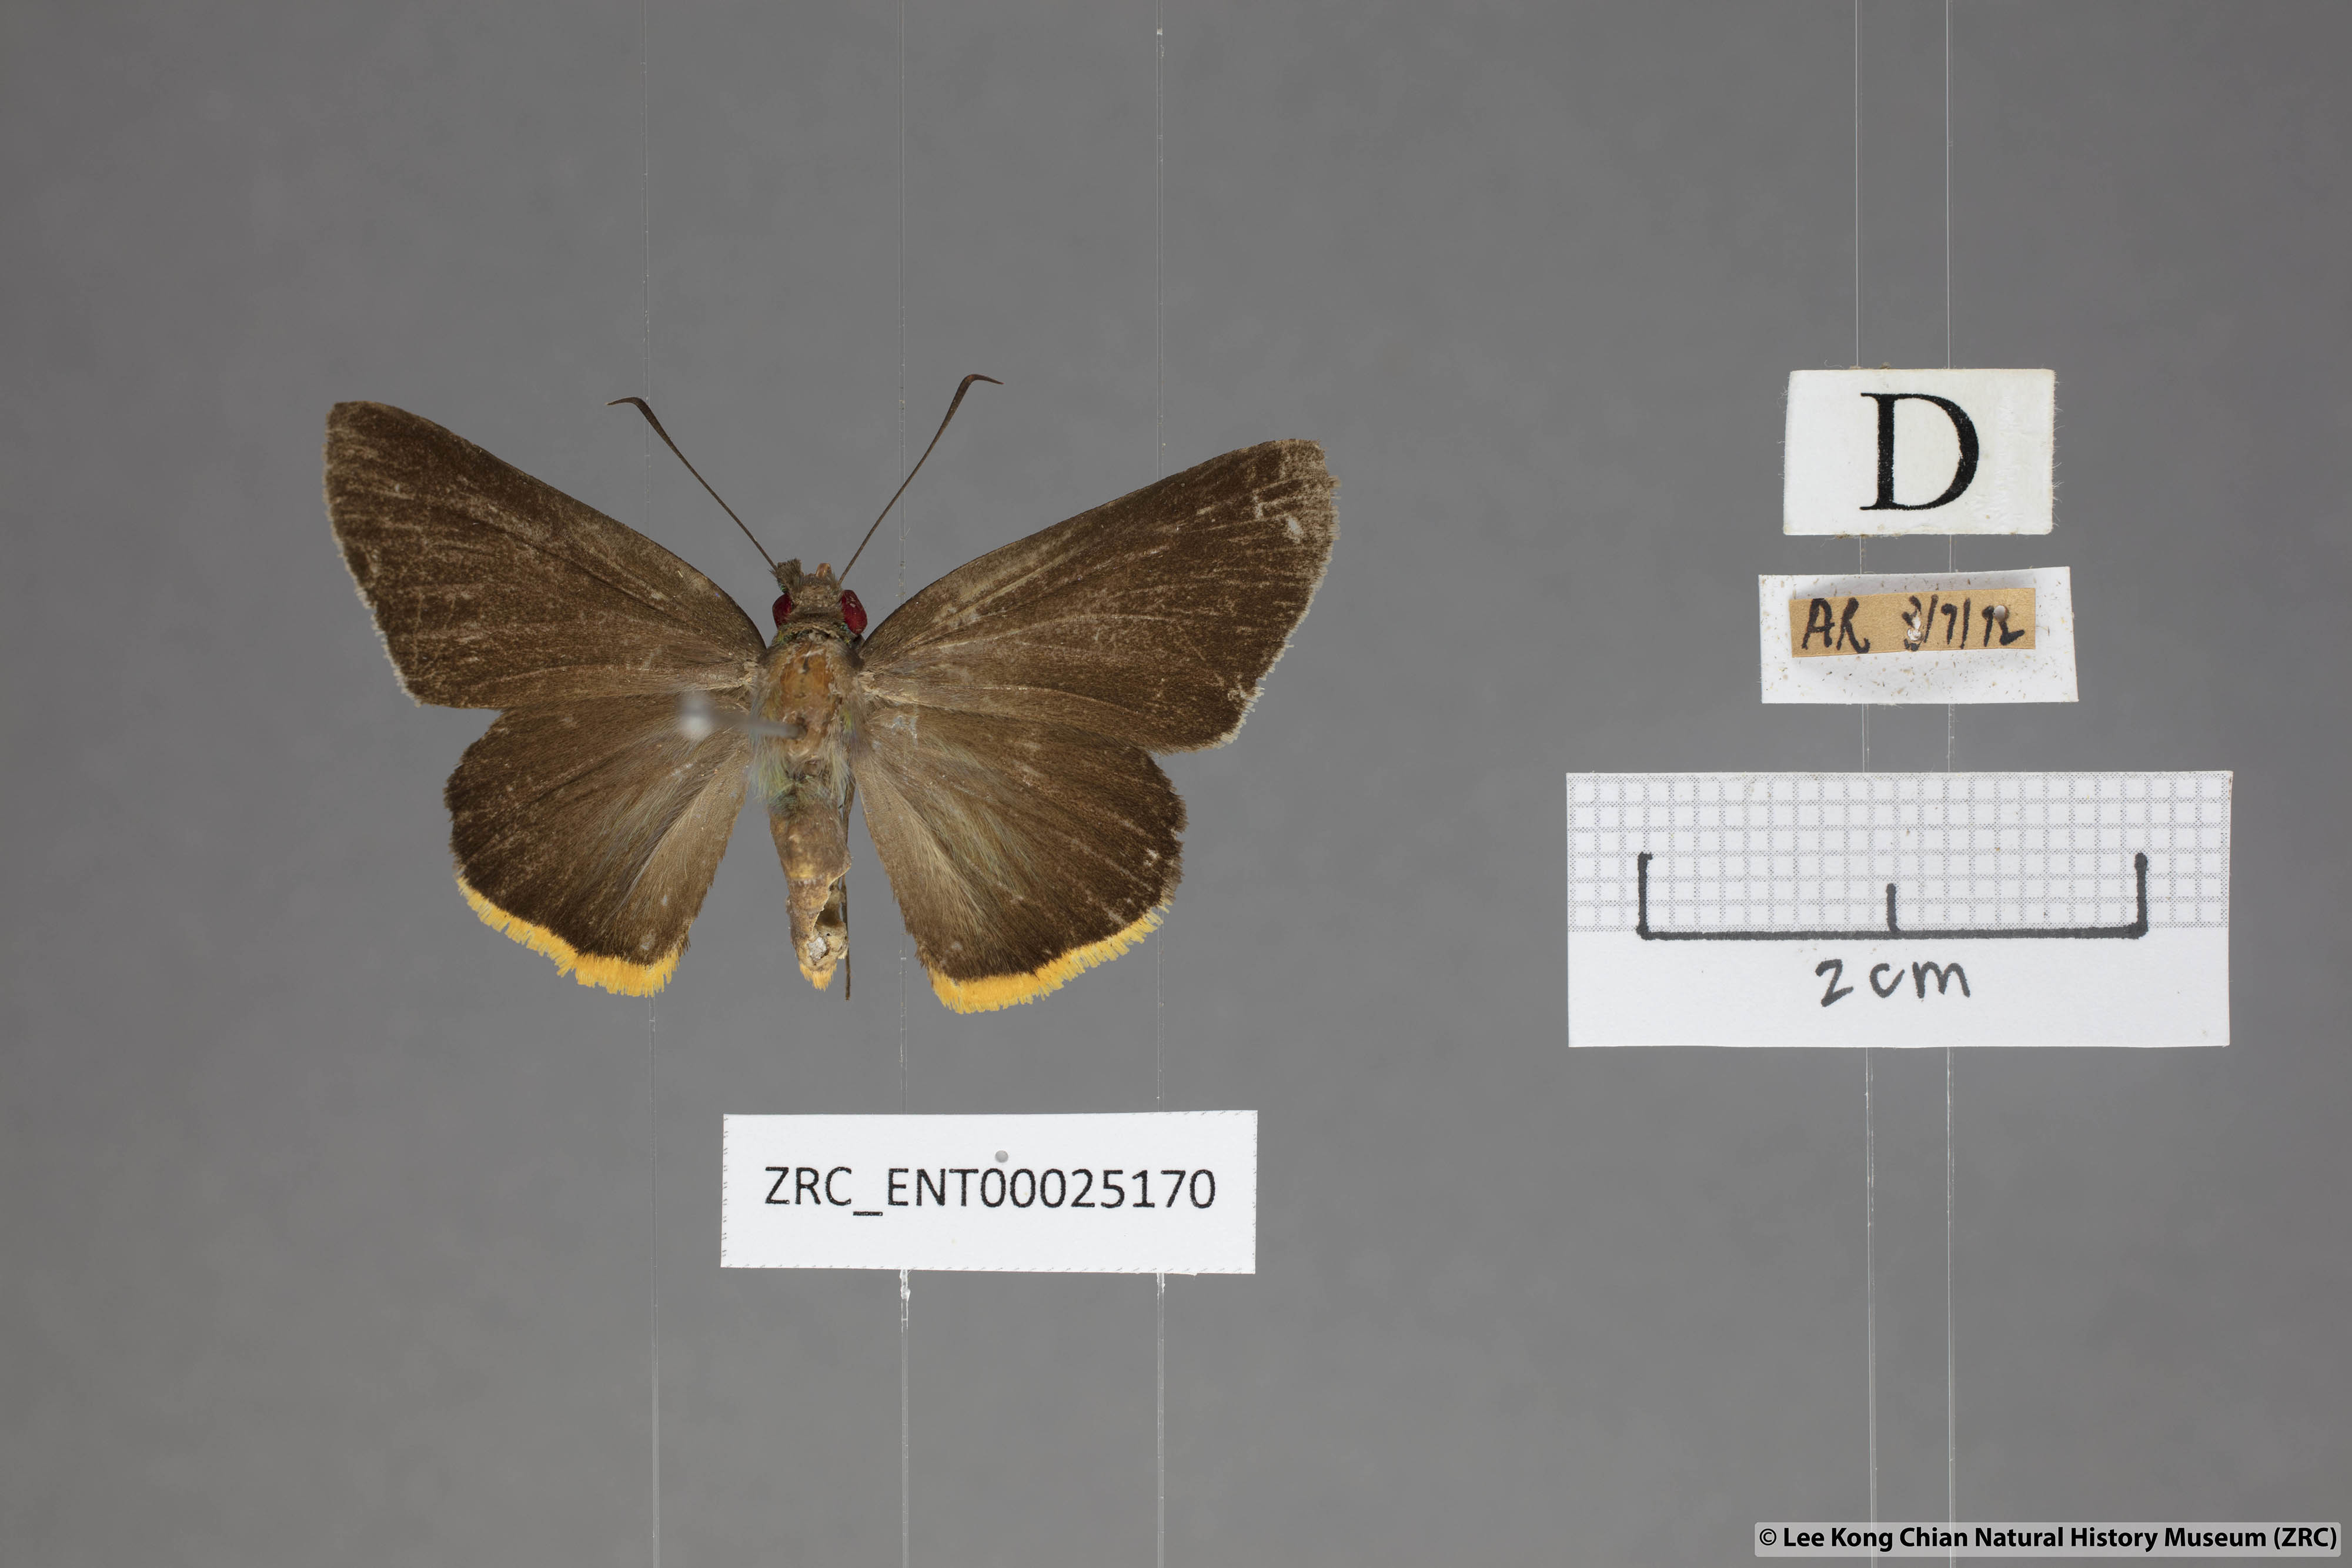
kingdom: Animalia
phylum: Arthropoda
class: Insecta
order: Lepidoptera
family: Hesperiidae
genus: Pirdana
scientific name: Pirdana hyela
